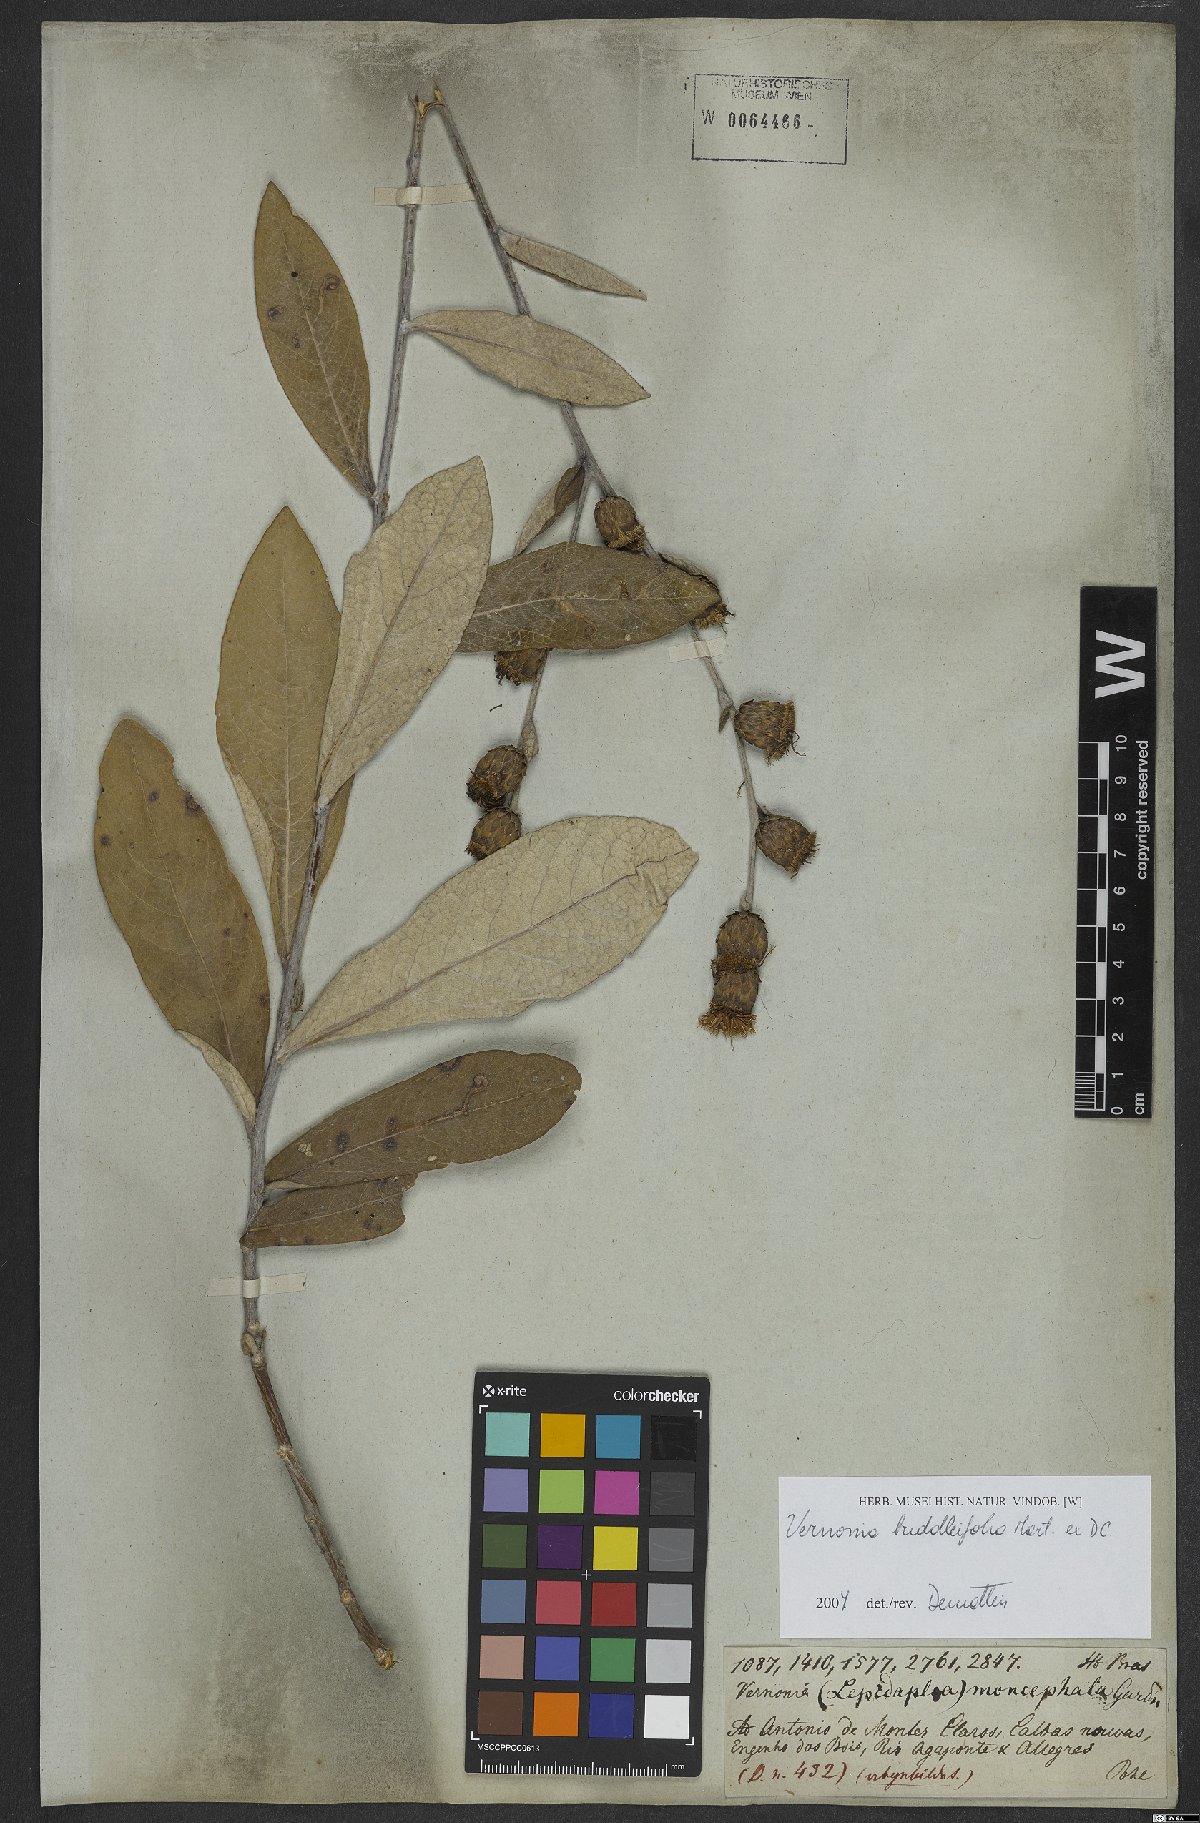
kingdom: Plantae
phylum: Tracheophyta
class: Magnoliopsida
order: Asterales
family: Asteraceae
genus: Lessingianthus
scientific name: Lessingianthus buddlejifolius
